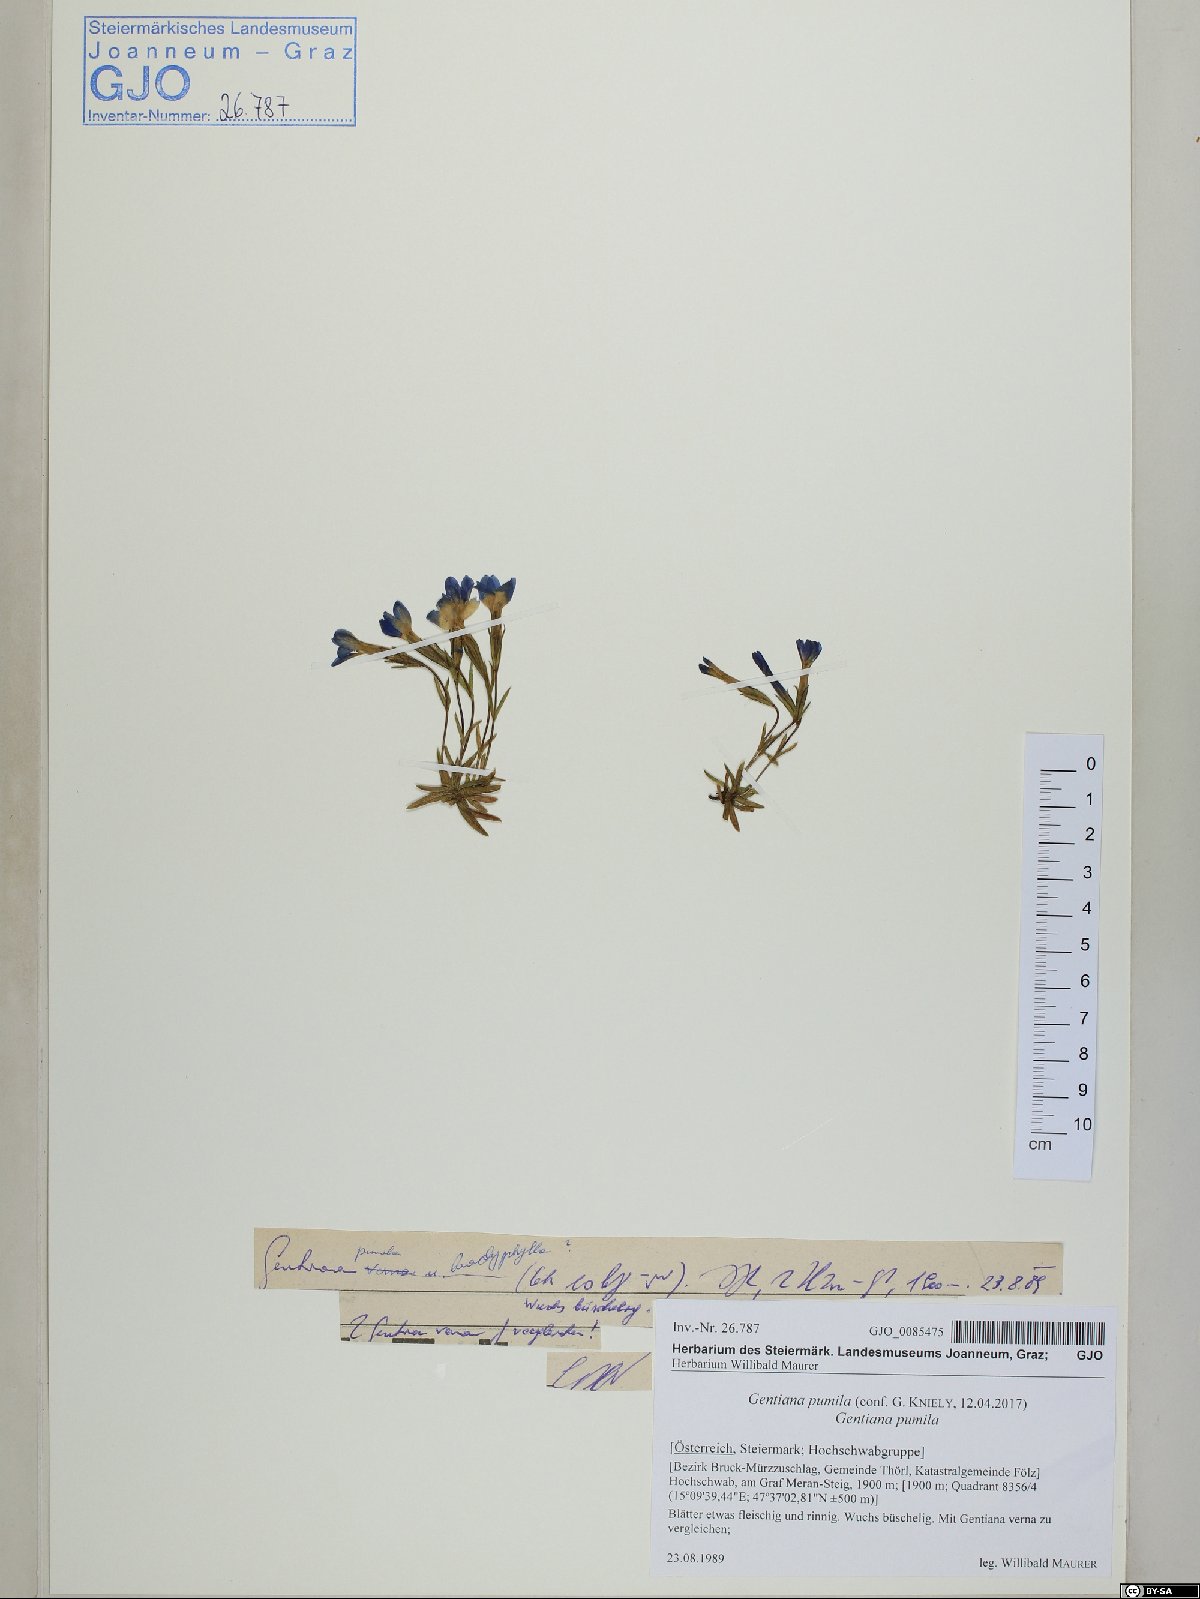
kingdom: Plantae
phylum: Tracheophyta
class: Magnoliopsida
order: Gentianales
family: Gentianaceae
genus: Gentiana
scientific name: Gentiana pumila
